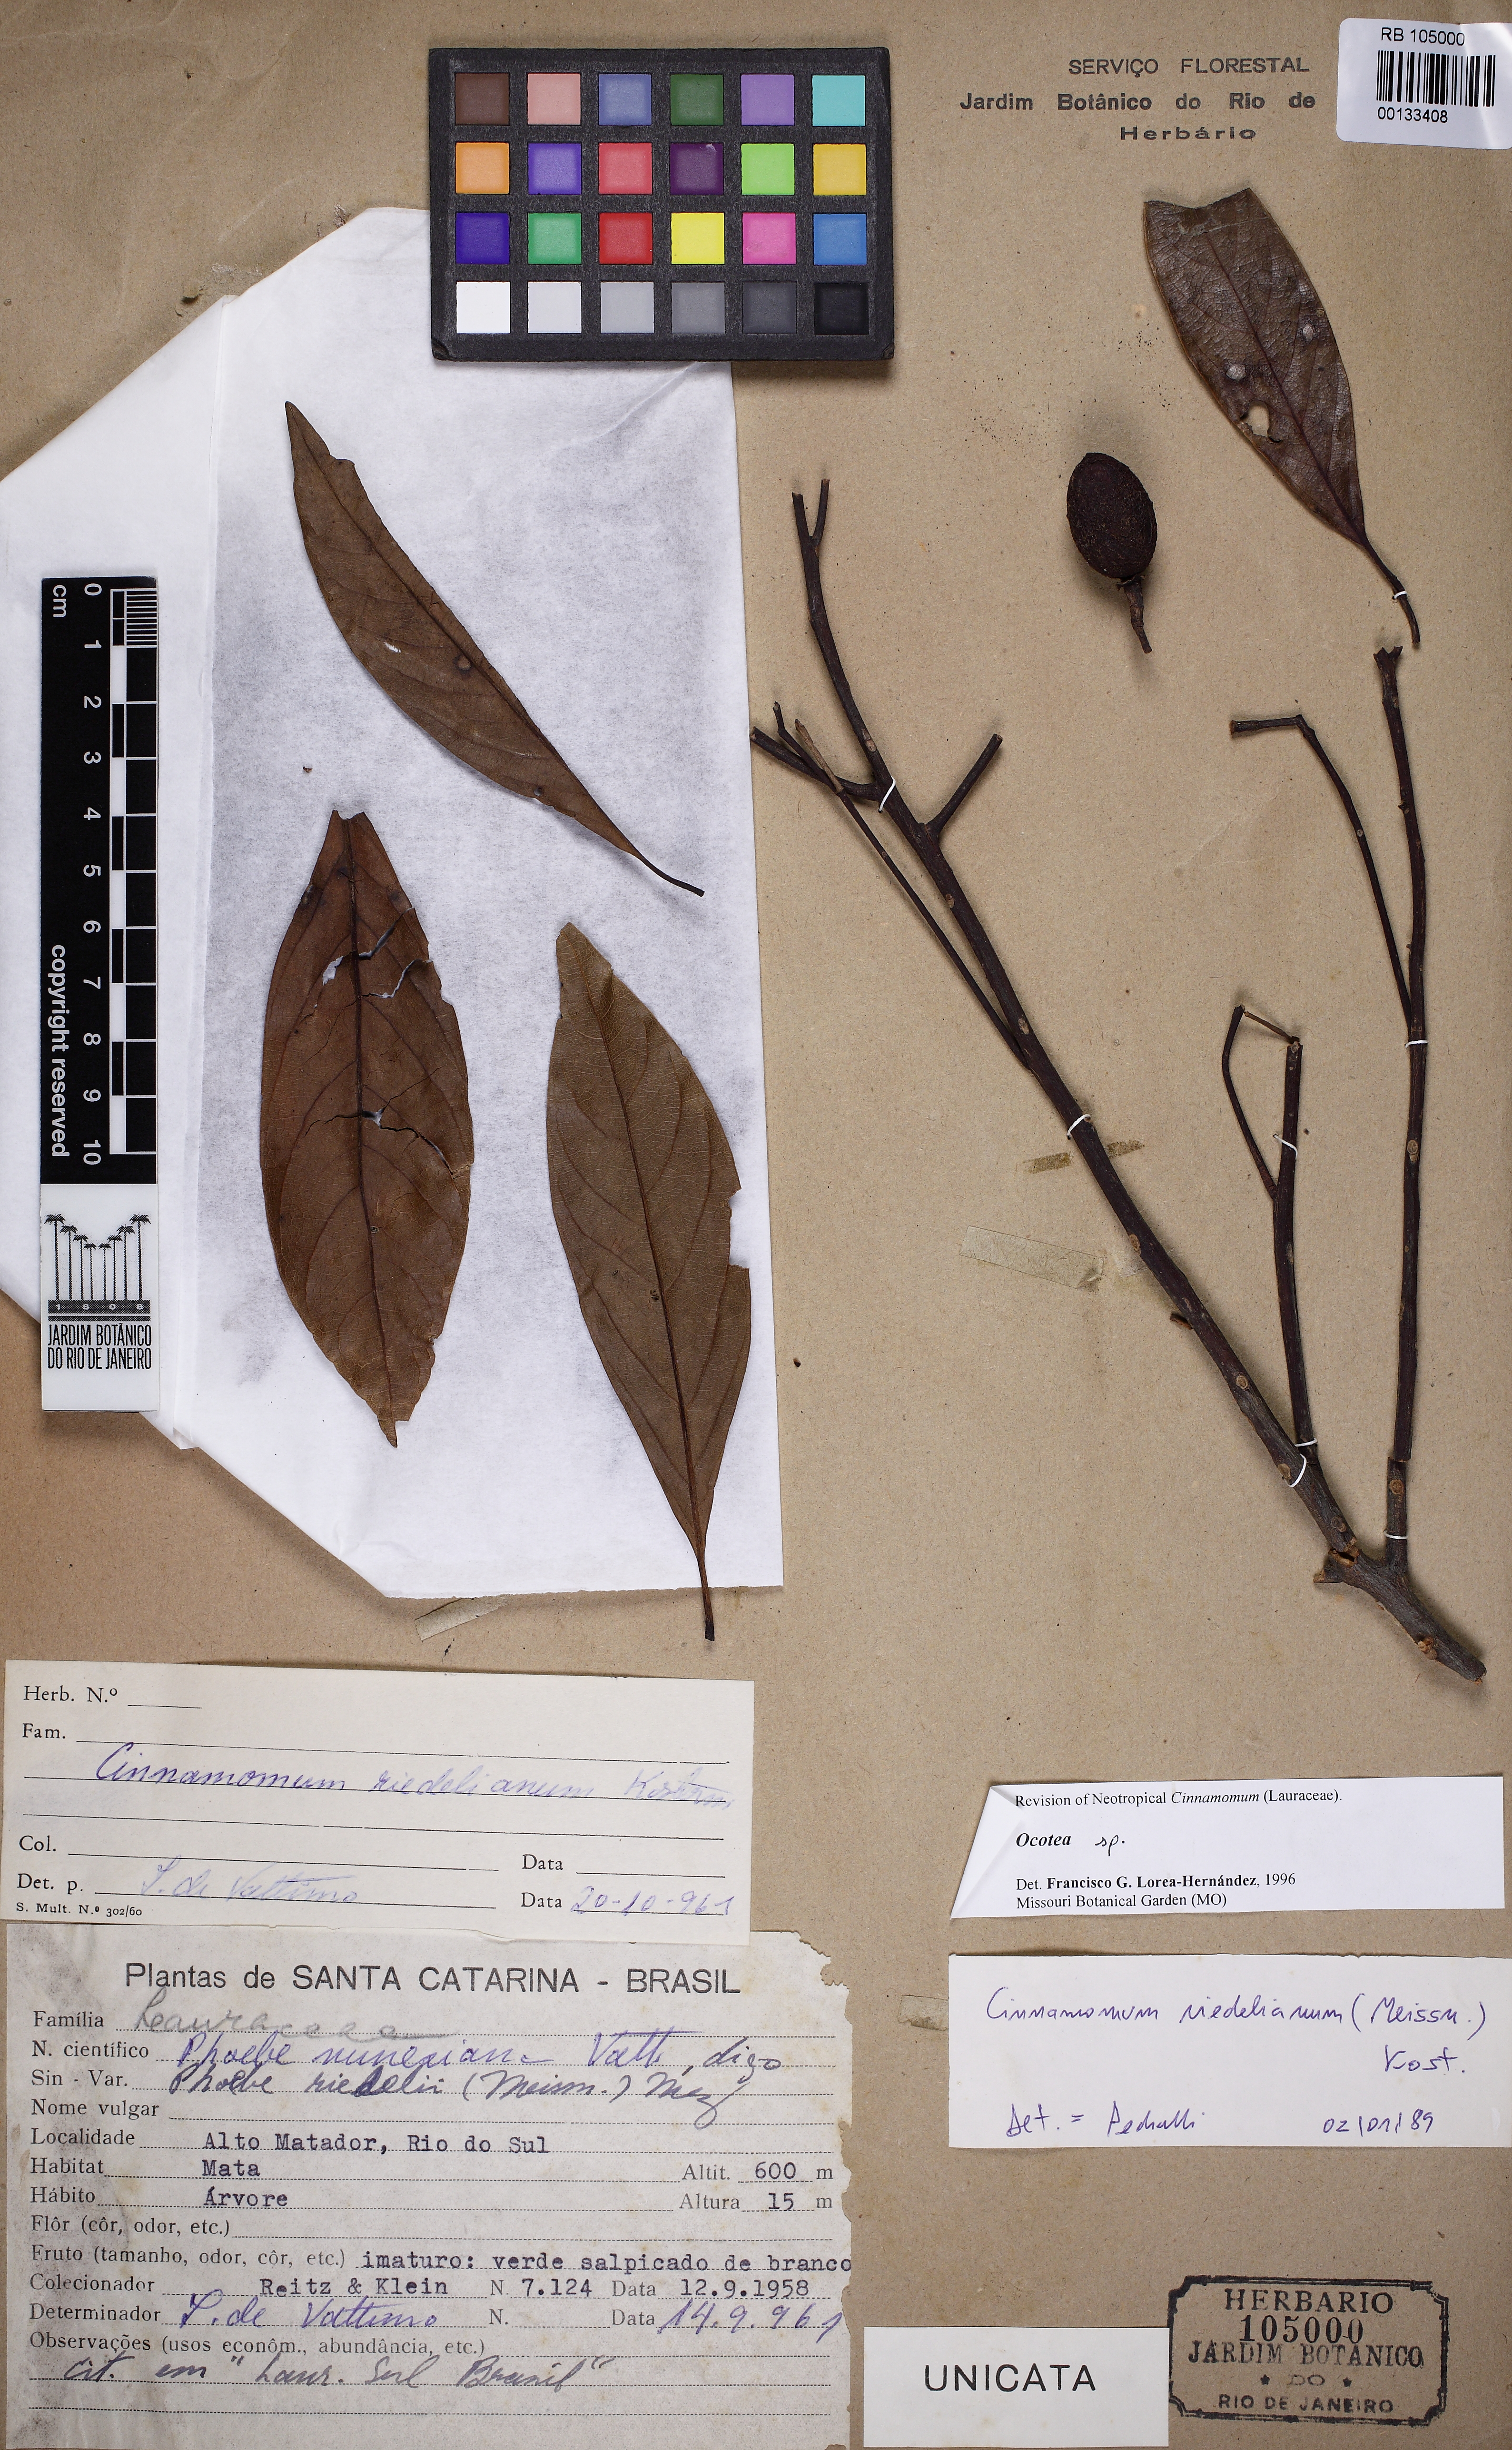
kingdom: Plantae
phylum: Tracheophyta
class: Magnoliopsida
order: Laurales
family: Lauraceae
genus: Ocotea
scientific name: Ocotea nunesiana
